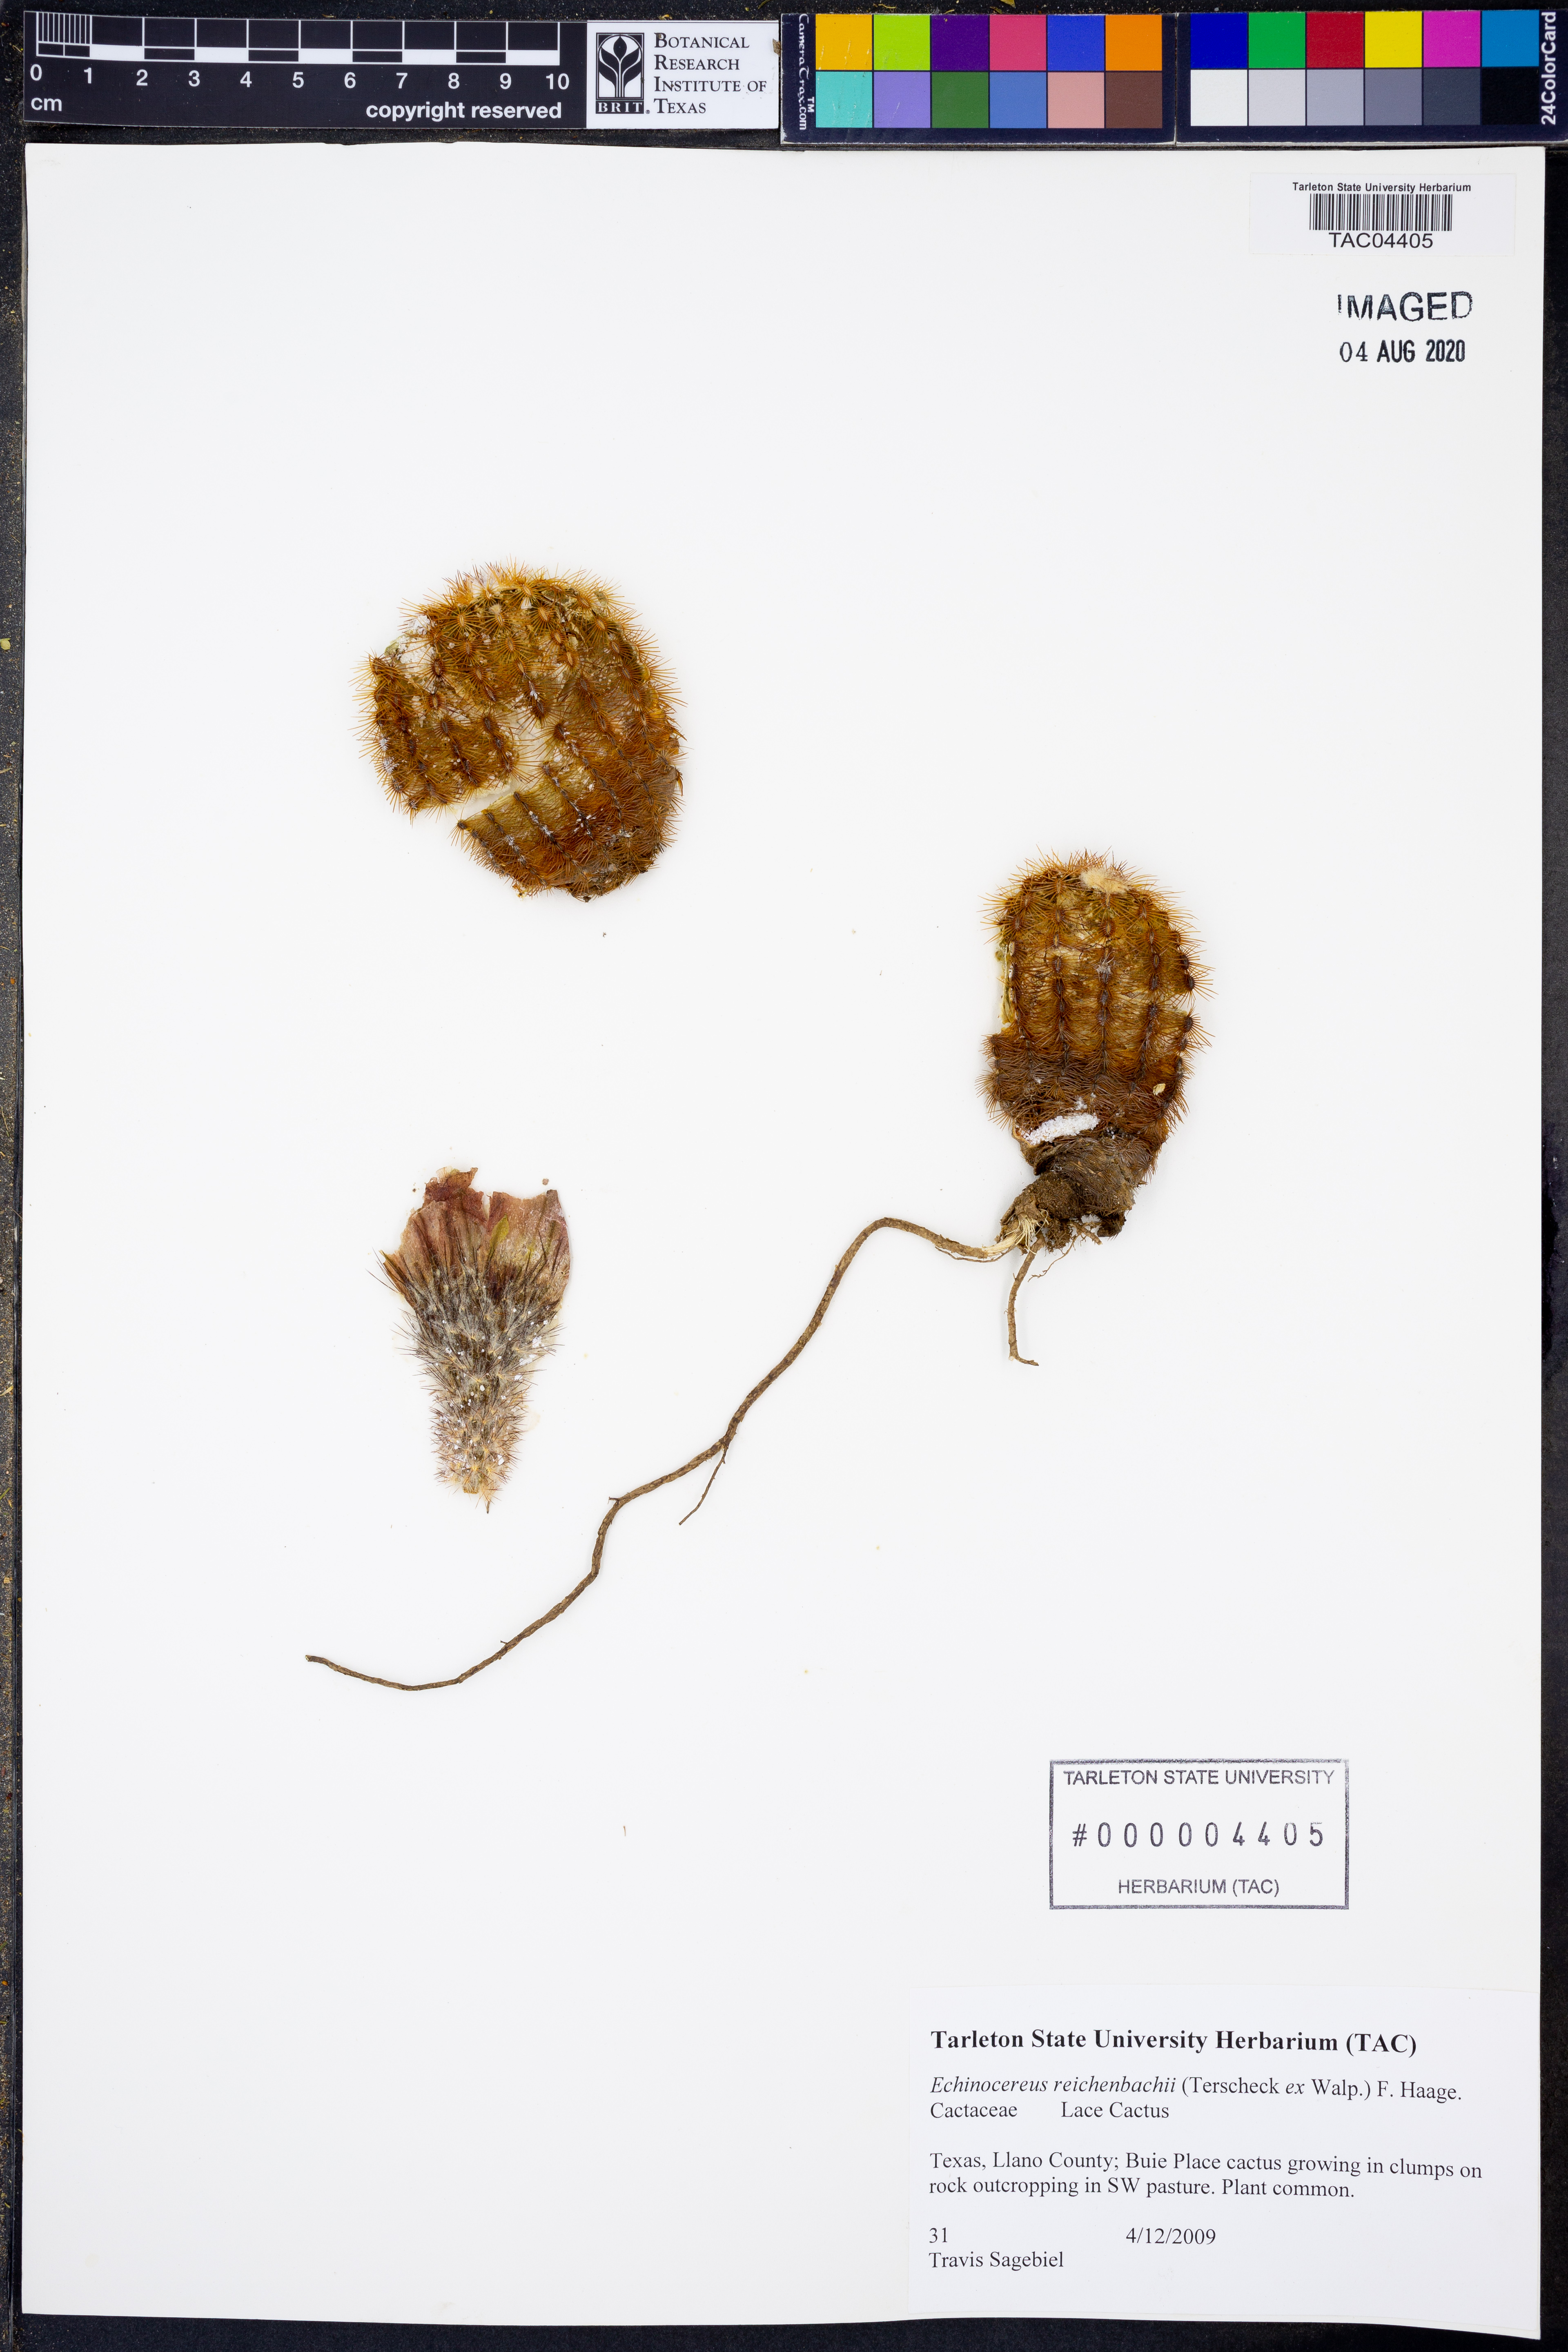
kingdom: Plantae
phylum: Tracheophyta
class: Magnoliopsida
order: Caryophyllales
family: Cactaceae
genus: Echinocereus
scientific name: Echinocereus reichenbachii
